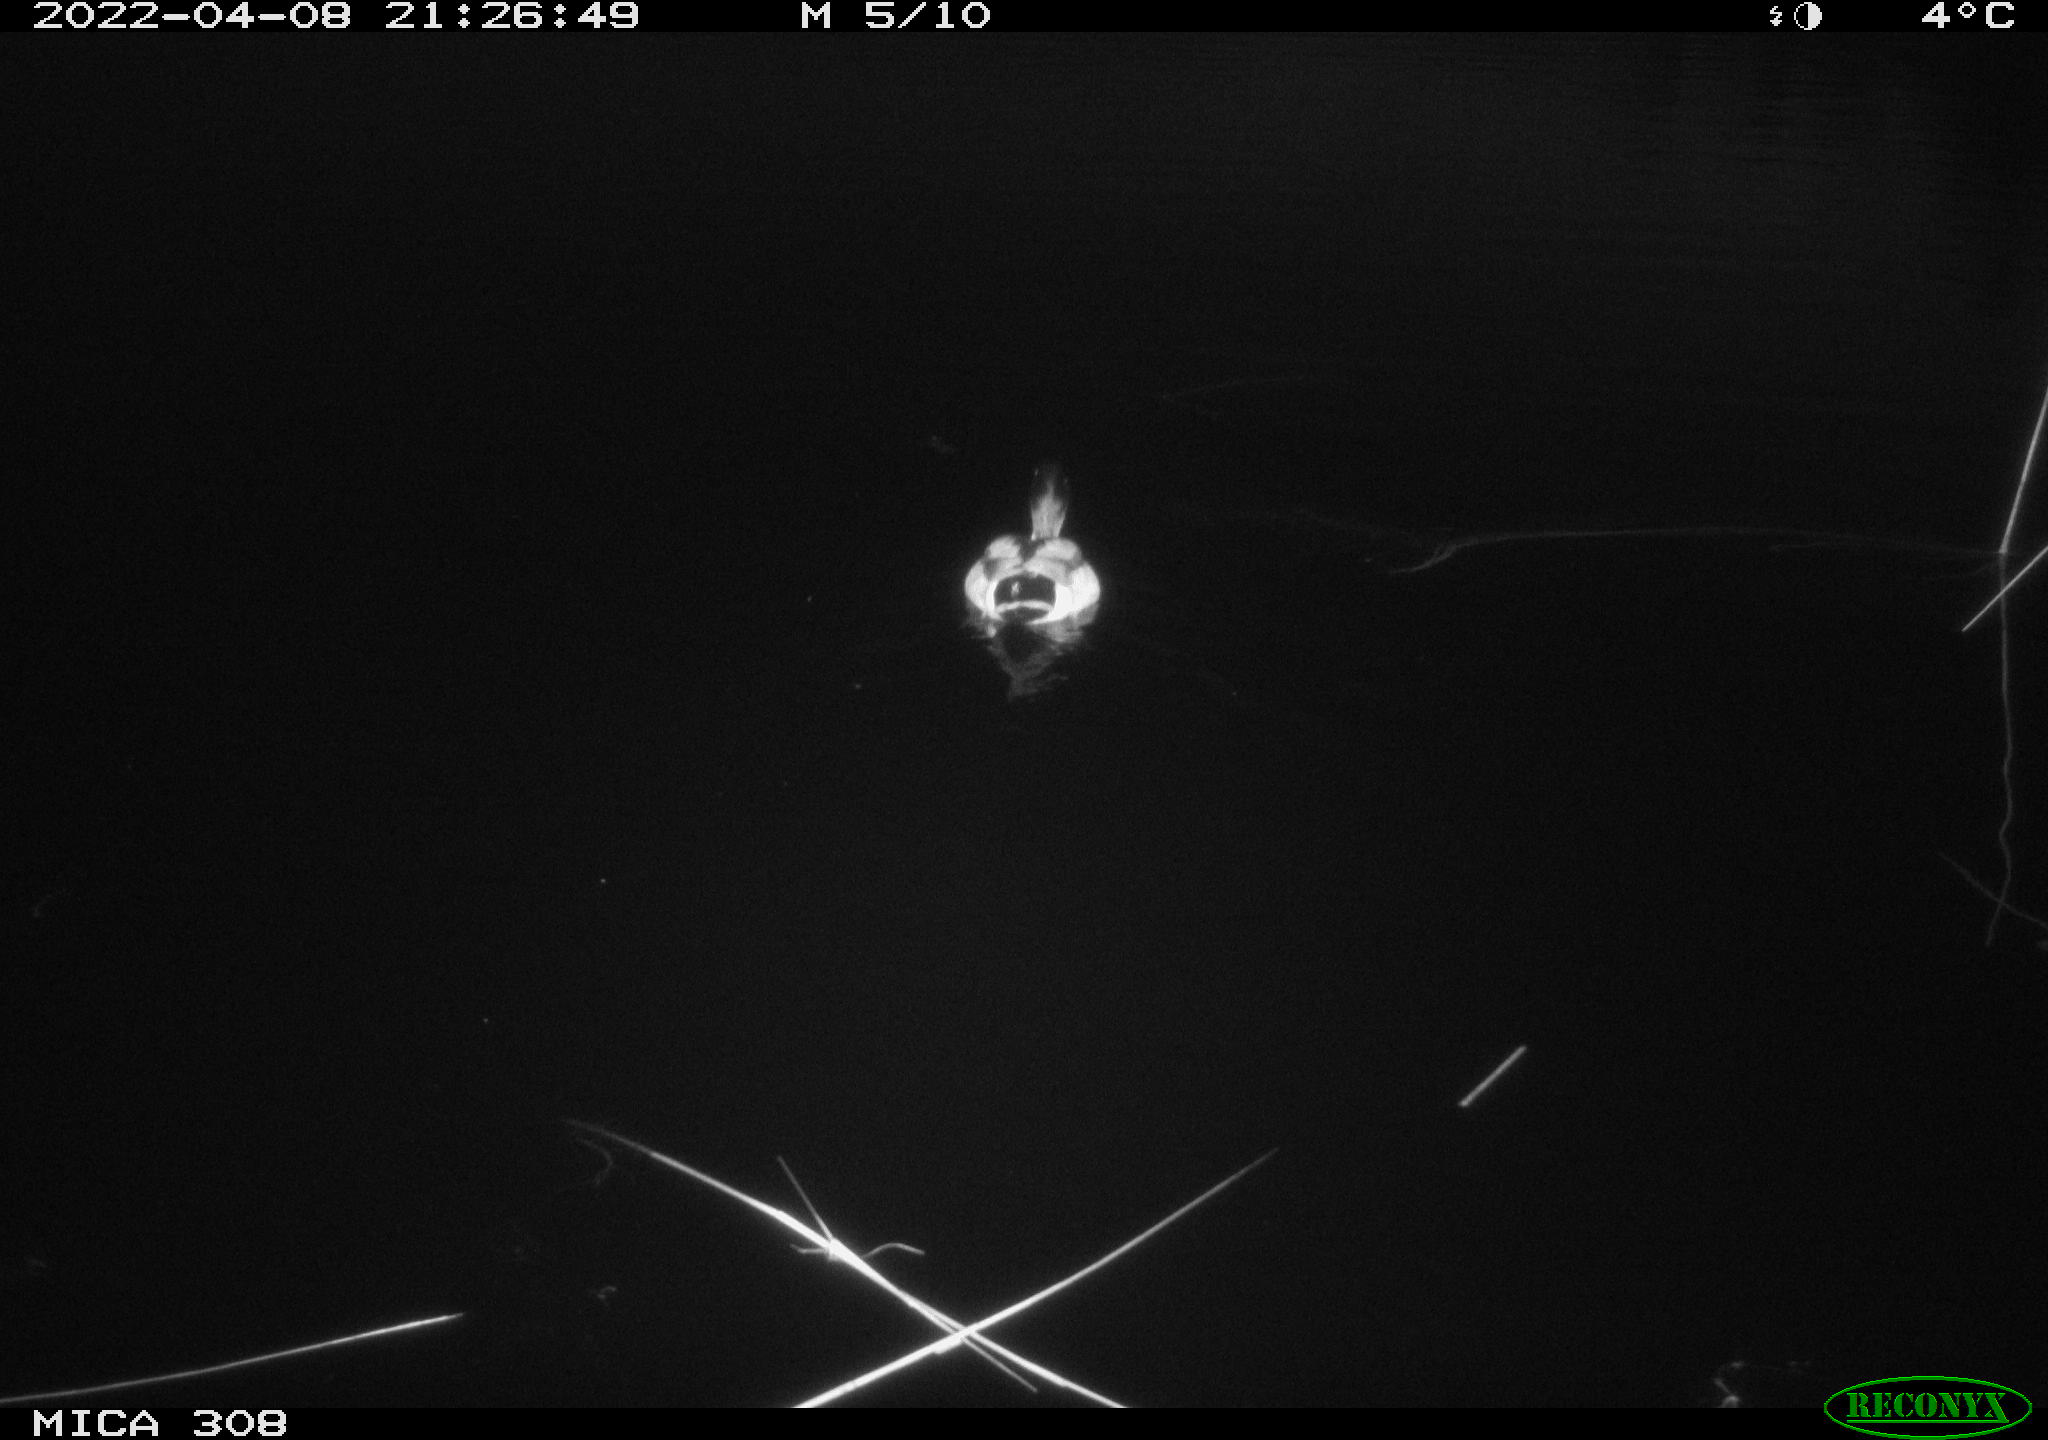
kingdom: Animalia
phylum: Chordata
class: Aves
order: Anseriformes
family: Anatidae
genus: Anas
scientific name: Anas platyrhynchos
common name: Mallard
